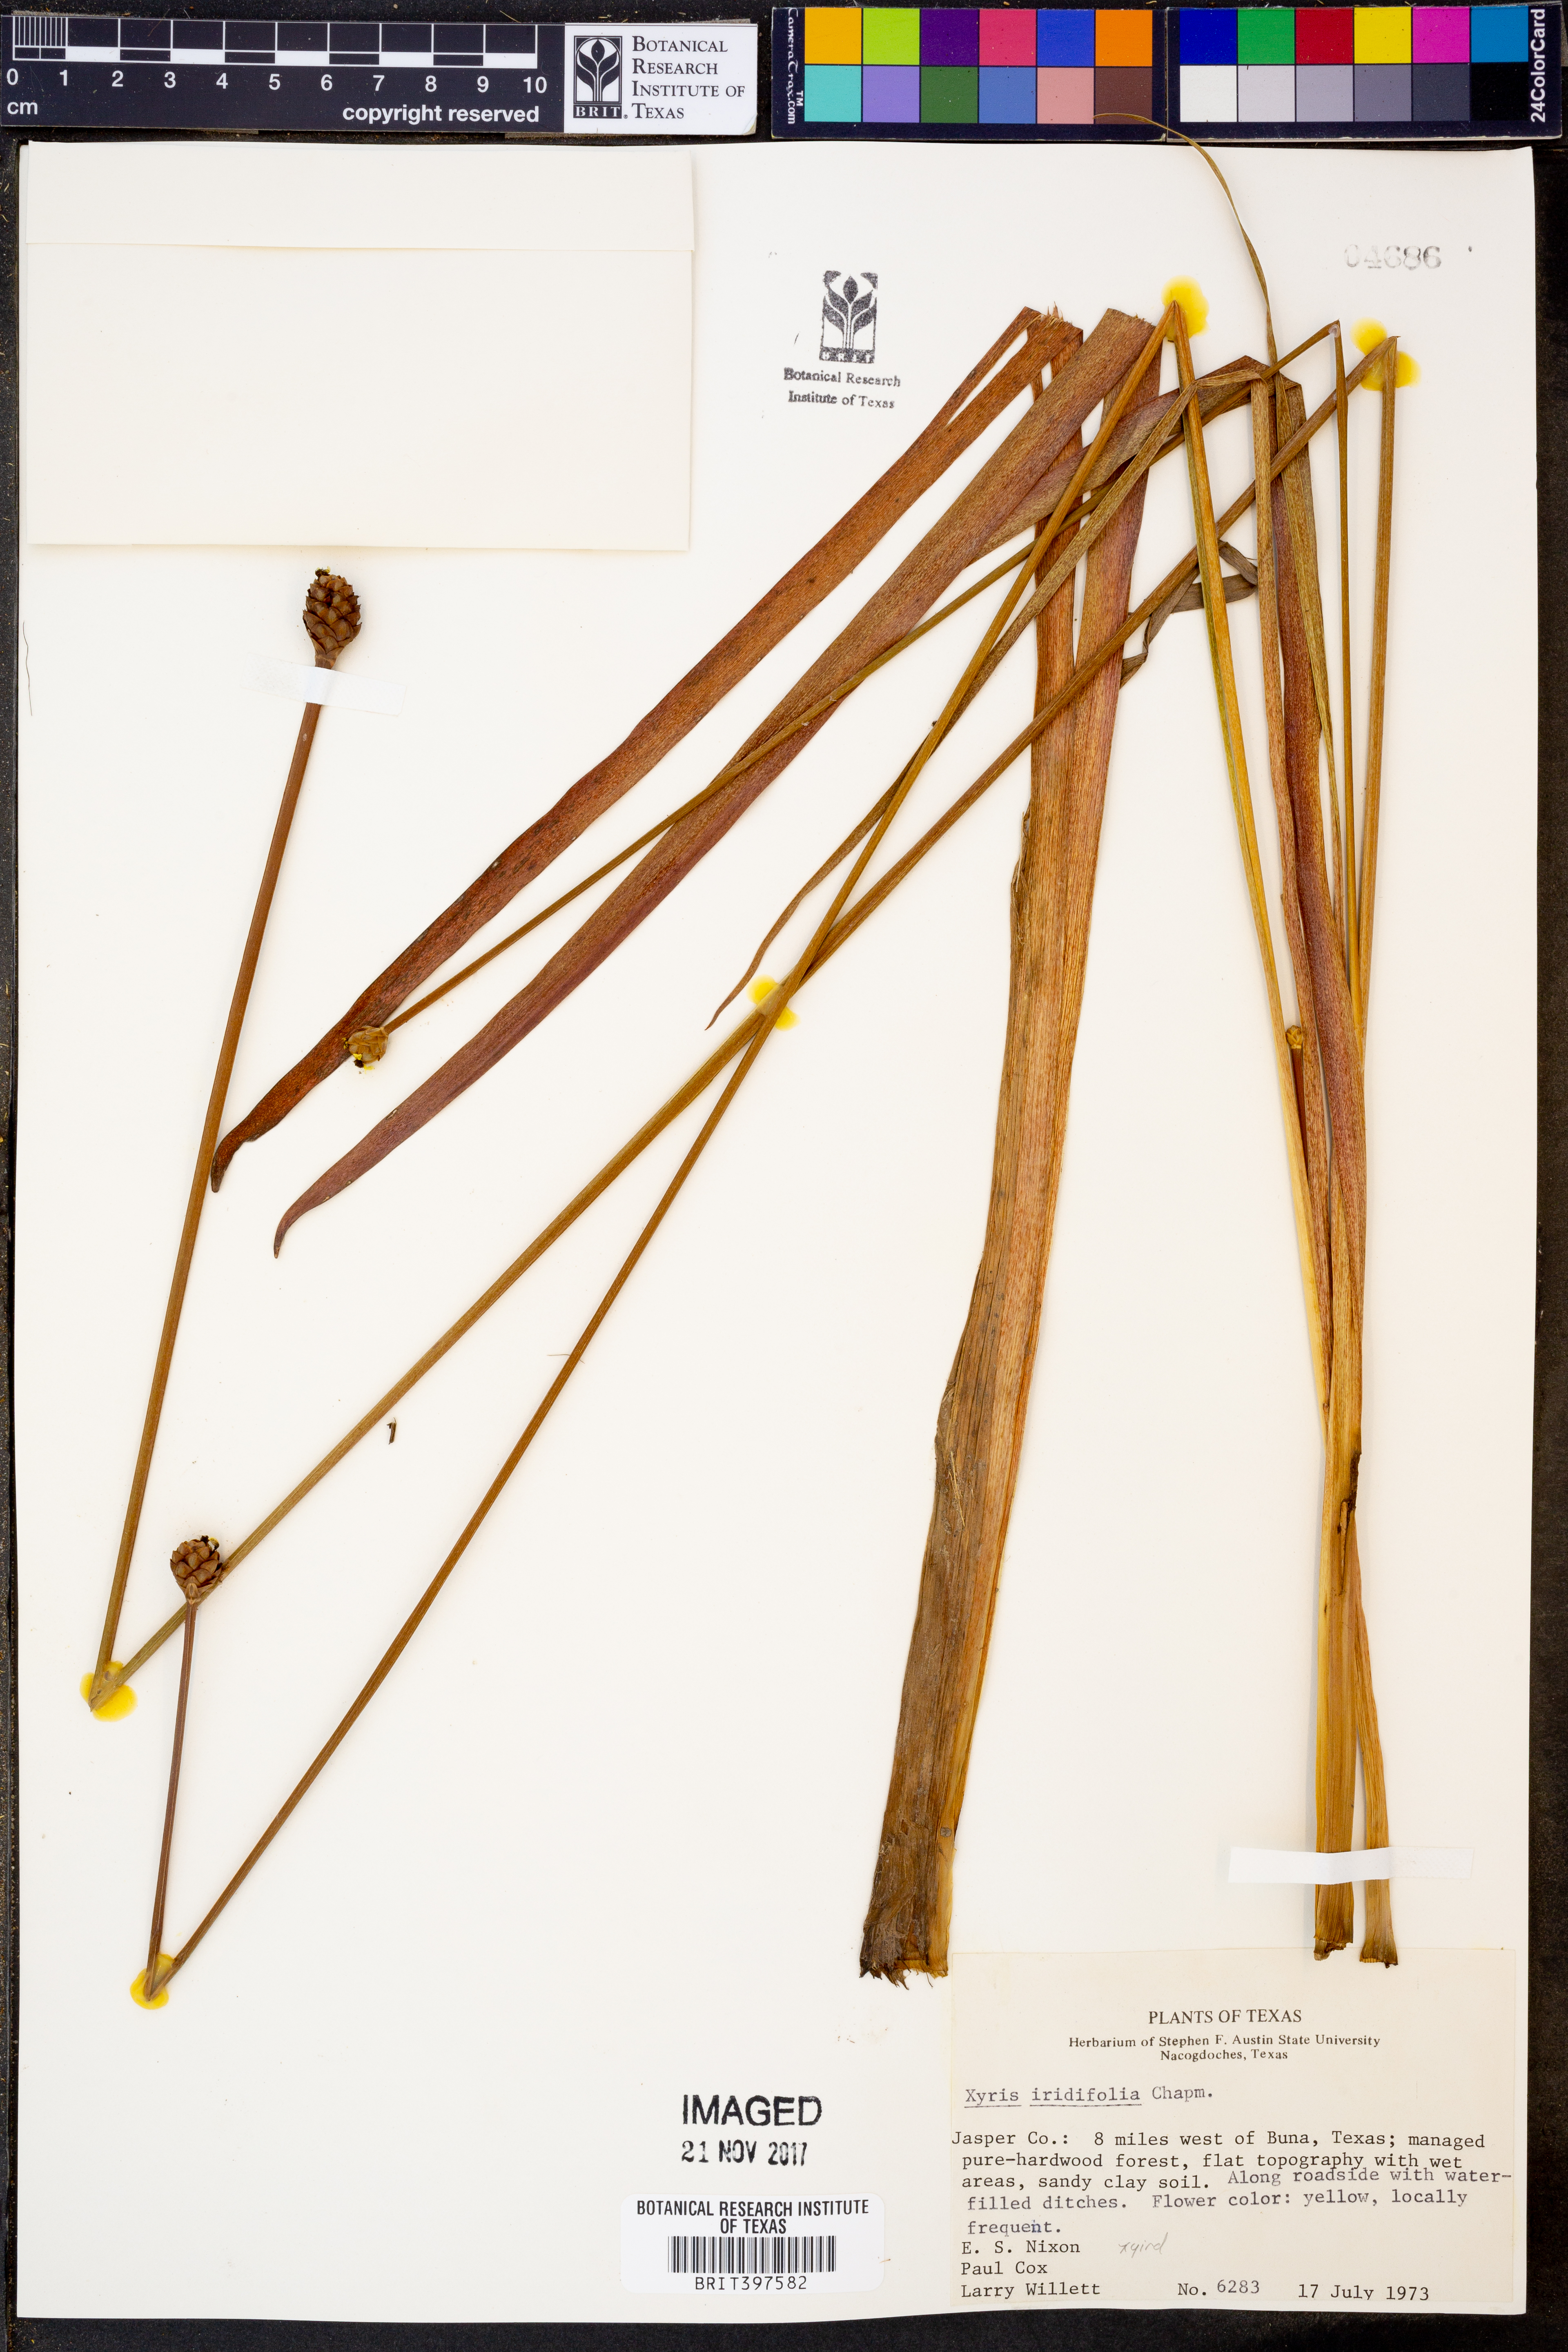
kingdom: Plantae
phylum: Tracheophyta
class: Liliopsida
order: Poales
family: Xyridaceae
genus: Xyris
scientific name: Xyris laxifolia
